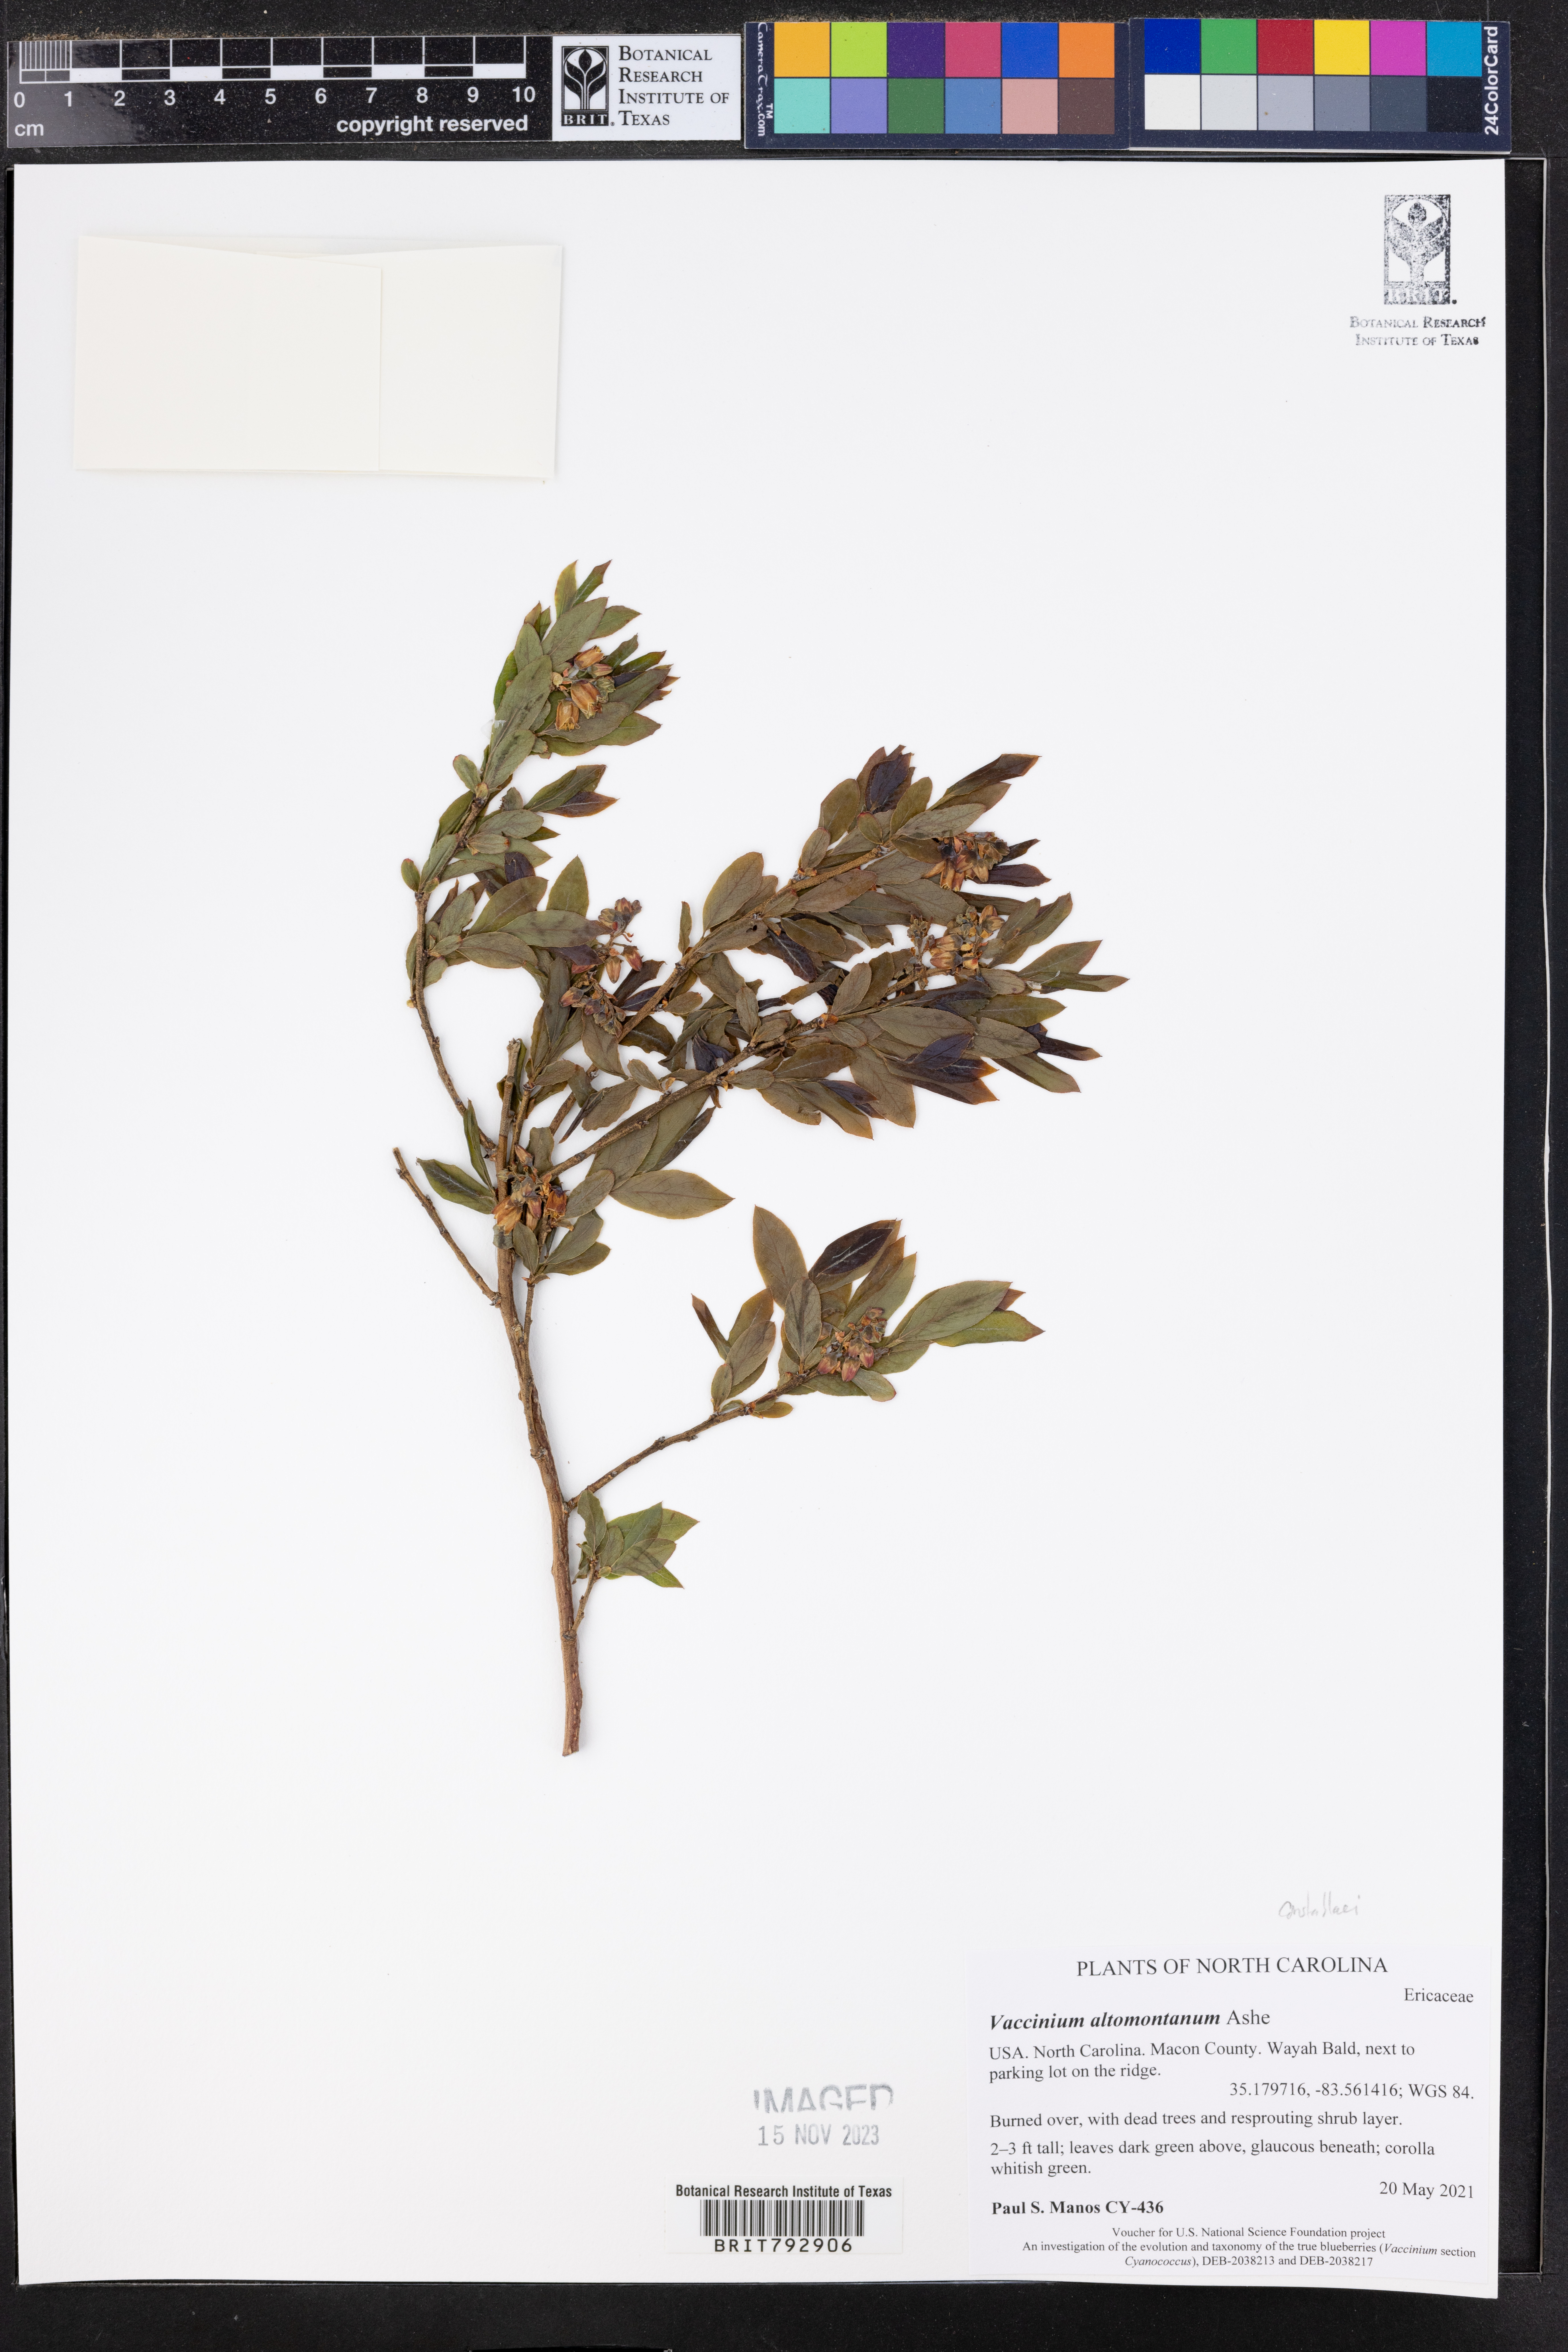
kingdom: Plantae
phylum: Tracheophyta
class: Magnoliopsida
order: Ericales
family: Ericaceae
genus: Vaccinium
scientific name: Vaccinium pallidum
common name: Blue ridge blueberry
